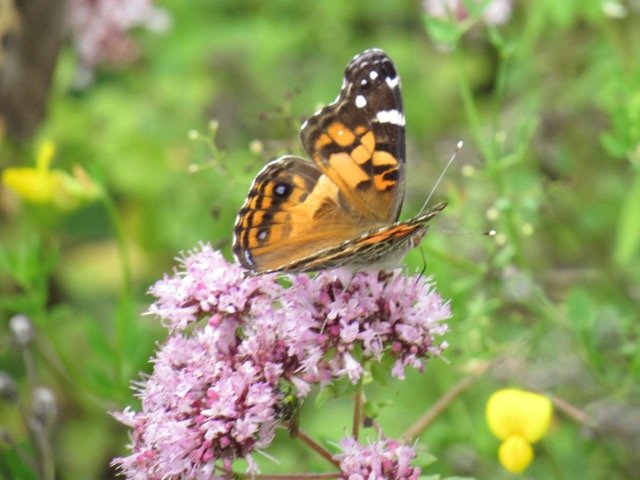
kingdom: Animalia
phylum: Arthropoda
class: Insecta
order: Lepidoptera
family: Nymphalidae
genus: Vanessa
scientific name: Vanessa virginiensis
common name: American Lady
